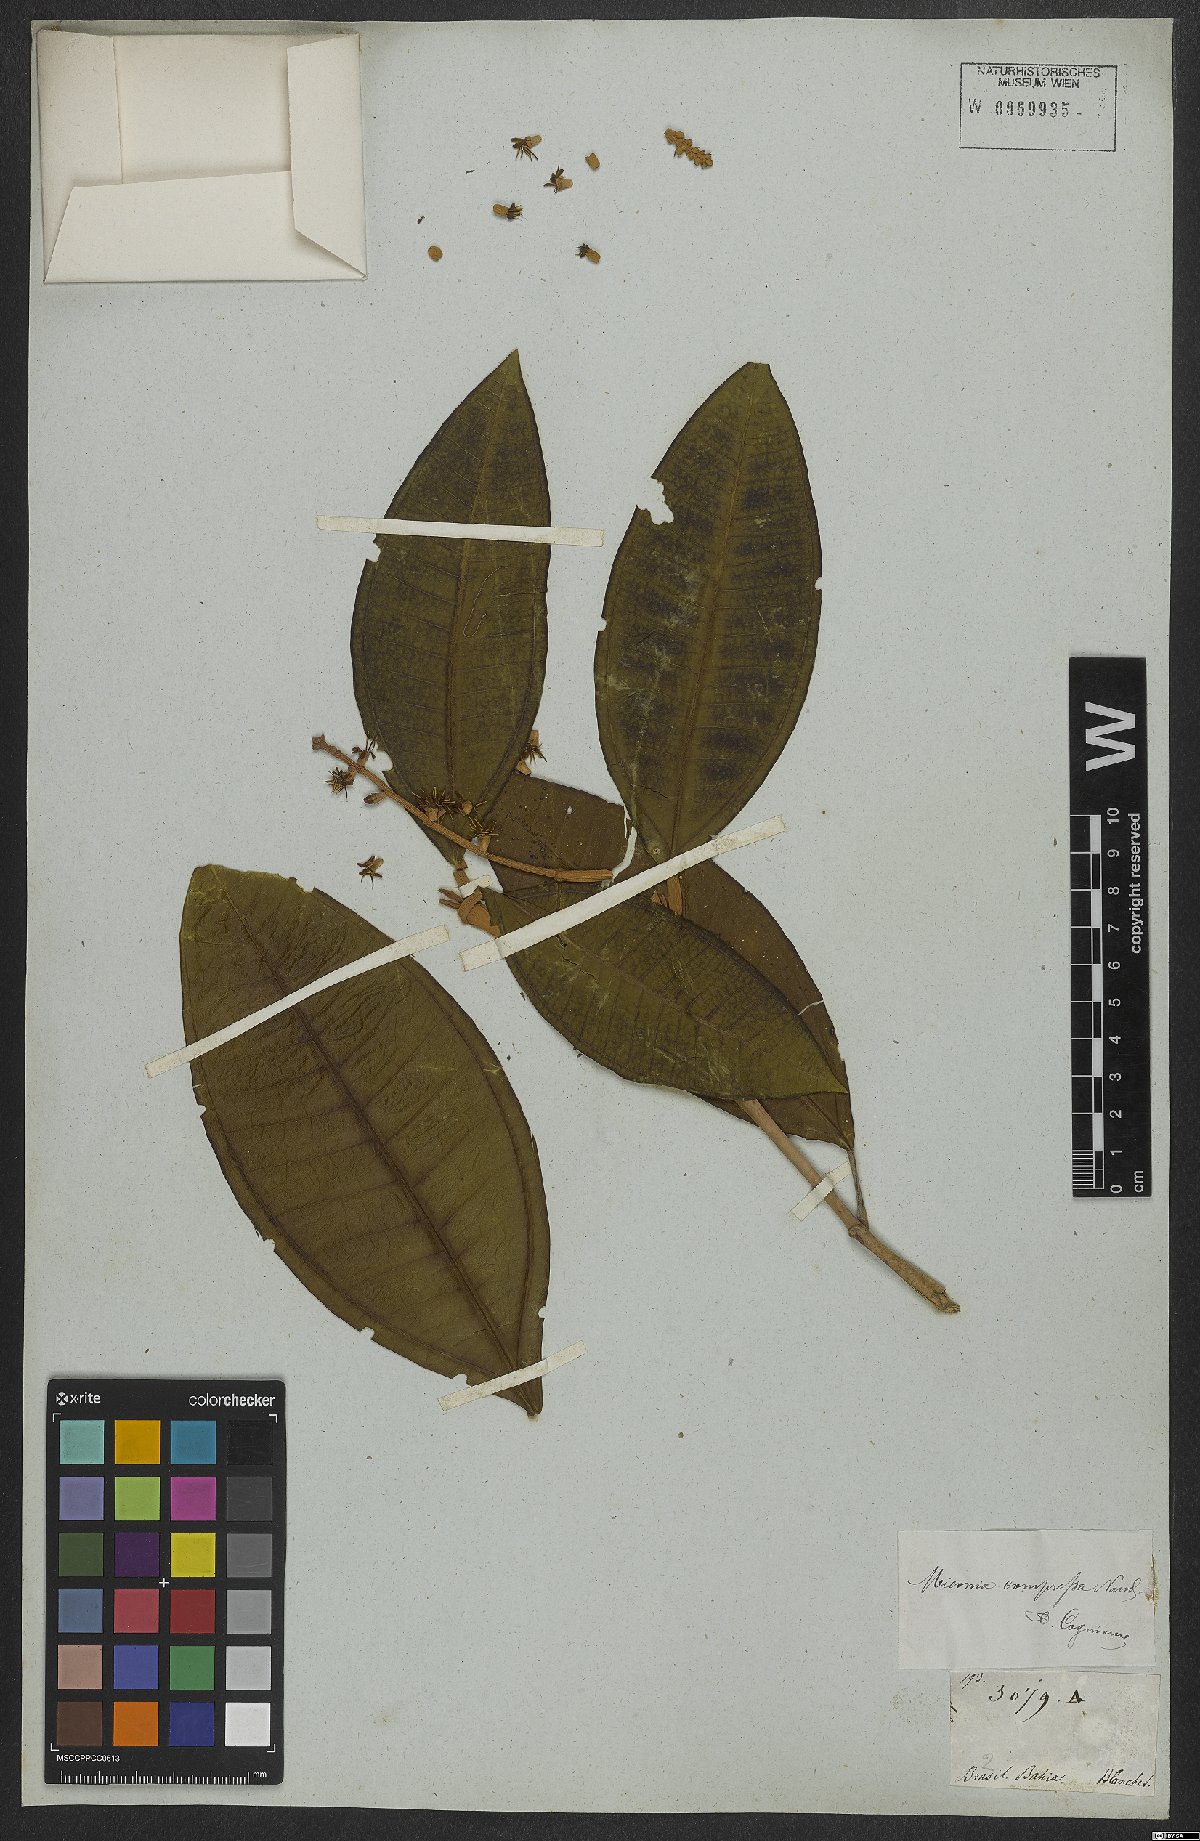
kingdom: Plantae
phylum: Tracheophyta
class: Magnoliopsida
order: Myrtales
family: Melastomataceae
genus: Miconia
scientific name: Miconia compressa
